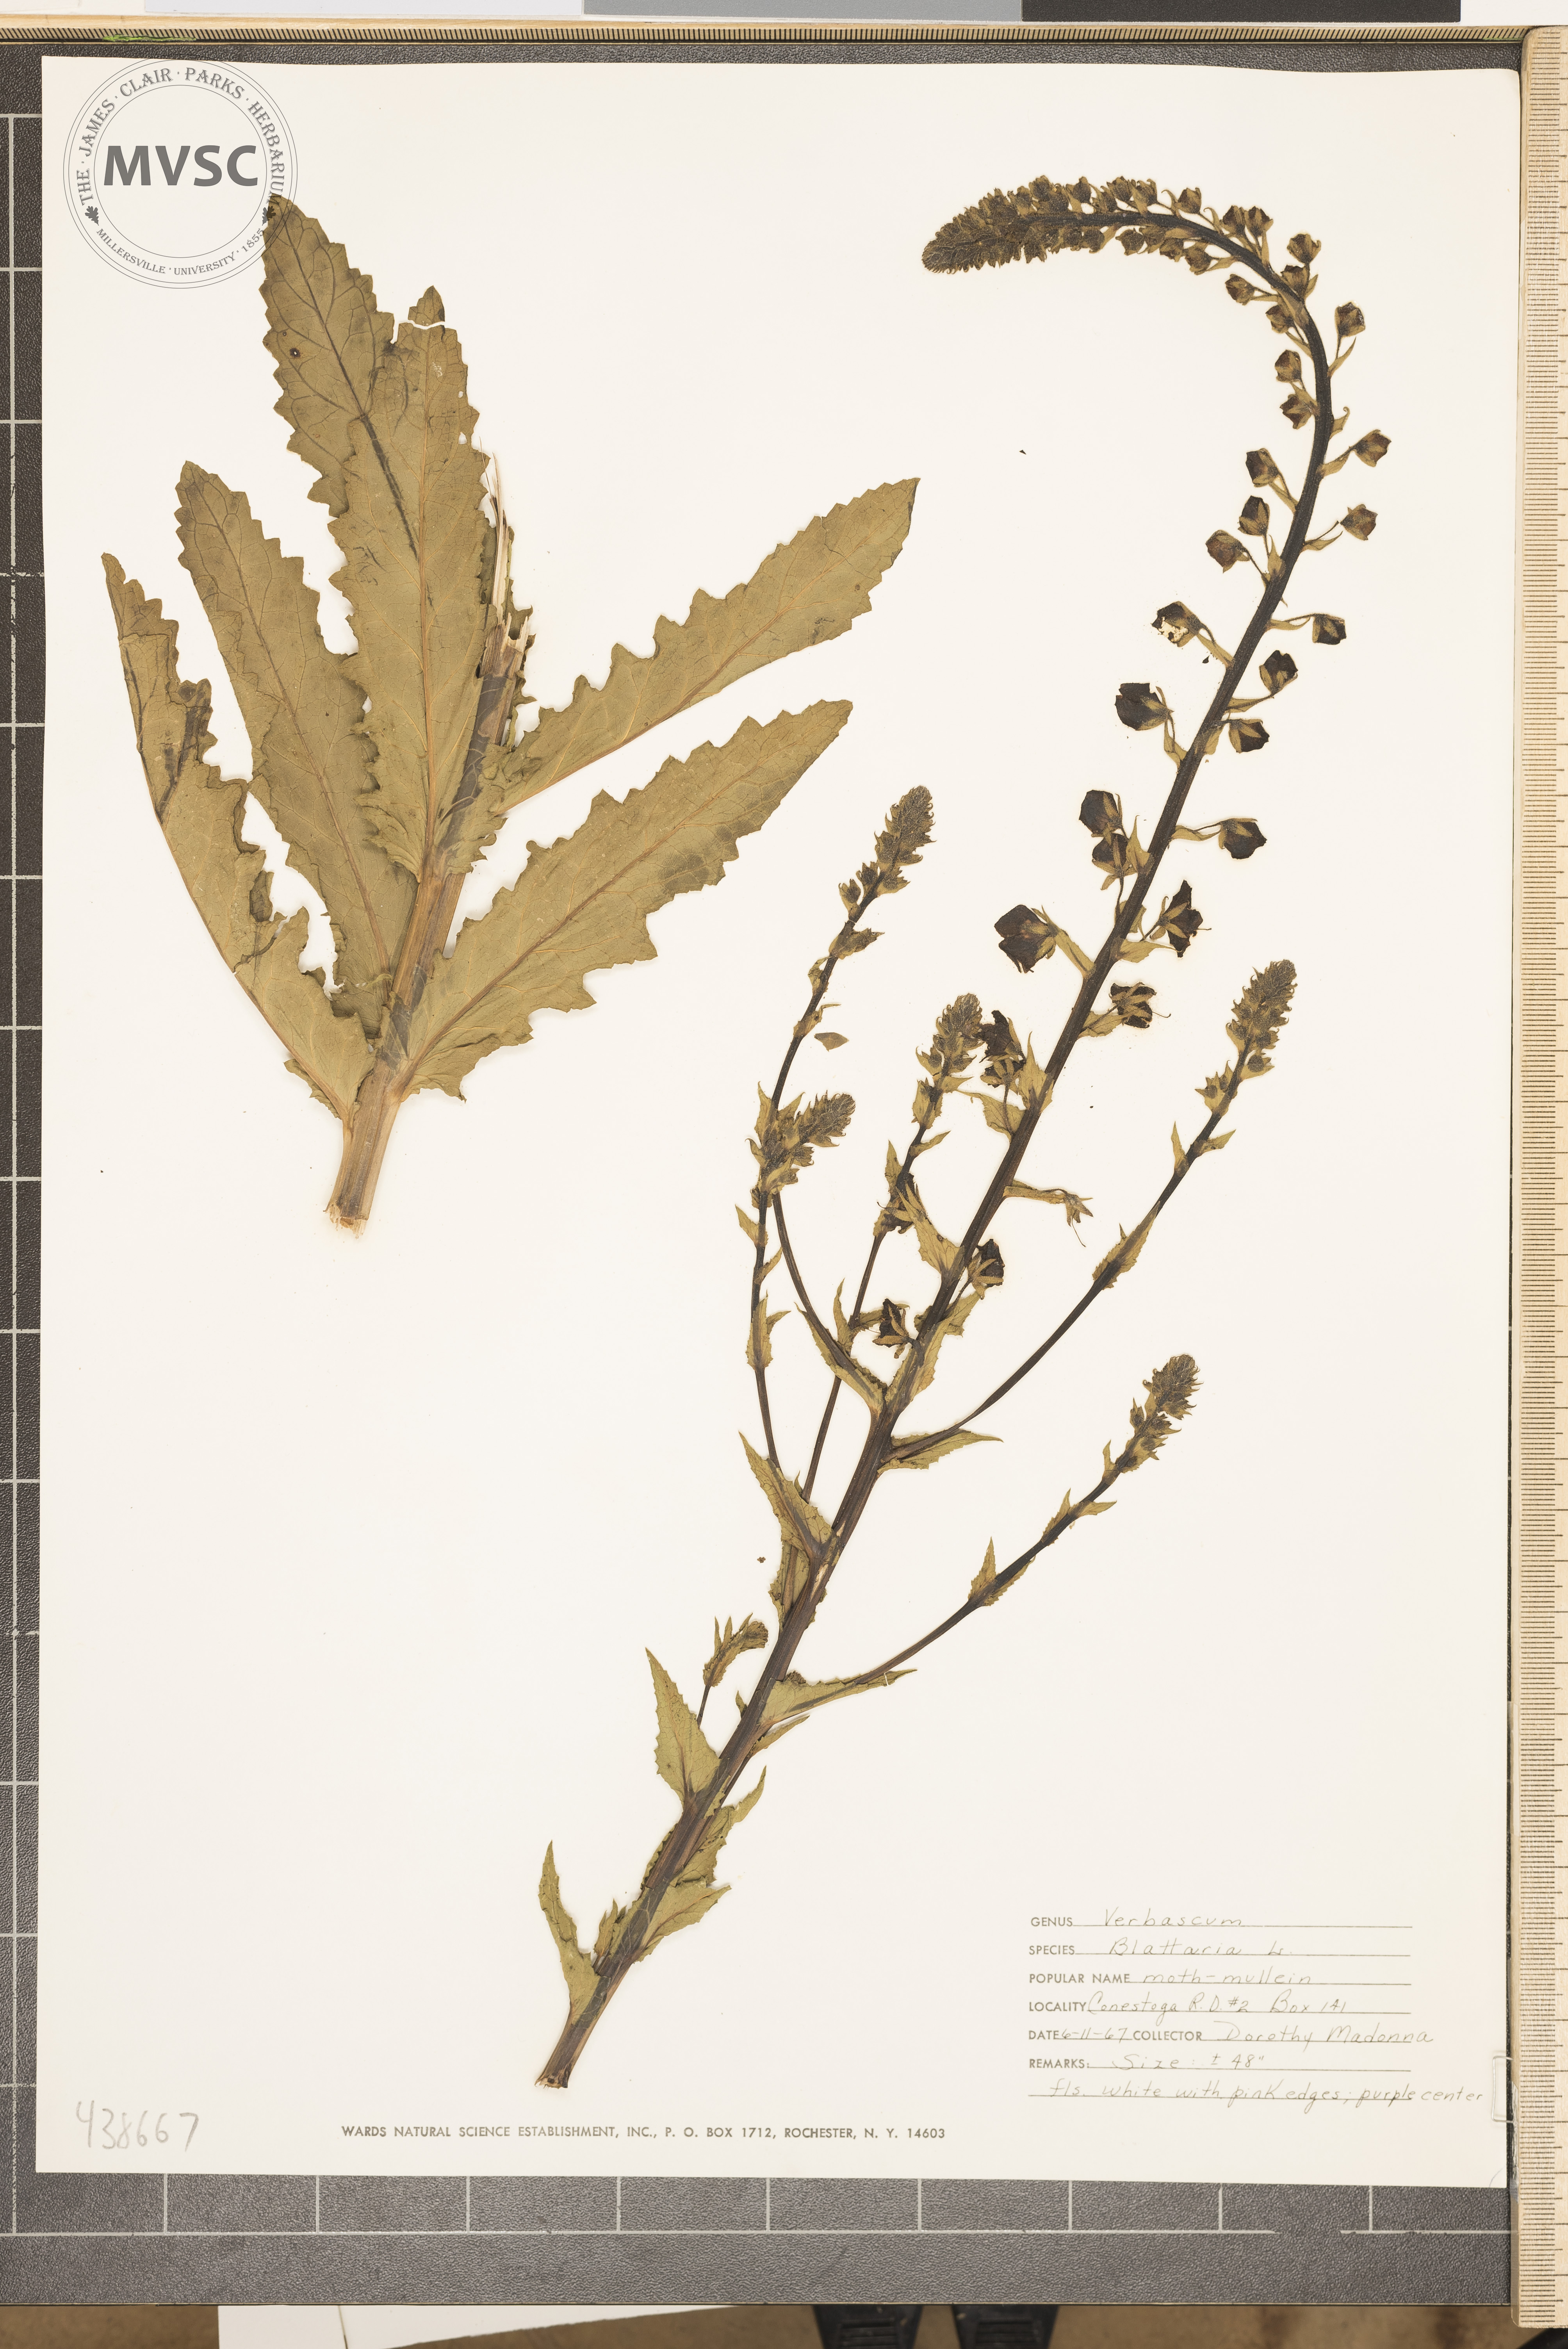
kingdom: Plantae
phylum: Tracheophyta
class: Magnoliopsida
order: Lamiales
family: Scrophulariaceae
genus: Verbascum
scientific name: Verbascum blattaria
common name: Moth mullein
